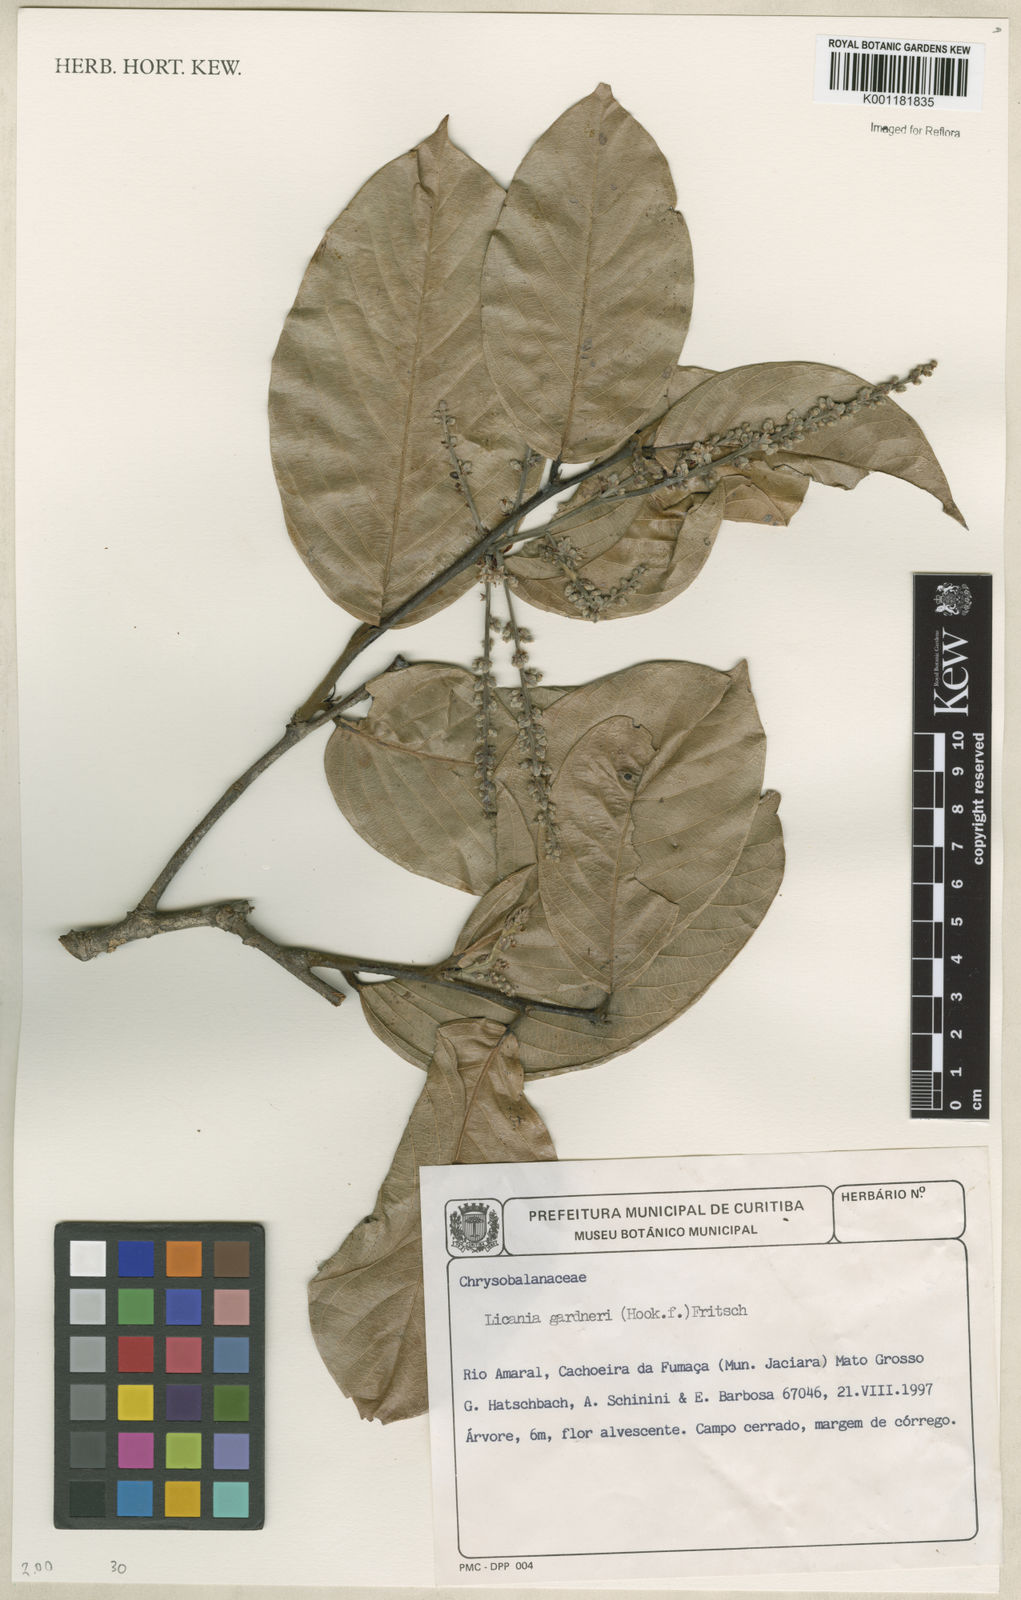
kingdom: Plantae
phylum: Tracheophyta
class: Magnoliopsida
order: Malpighiales
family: Chrysobalanaceae
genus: Leptobalanus
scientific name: Leptobalanus gardneri
